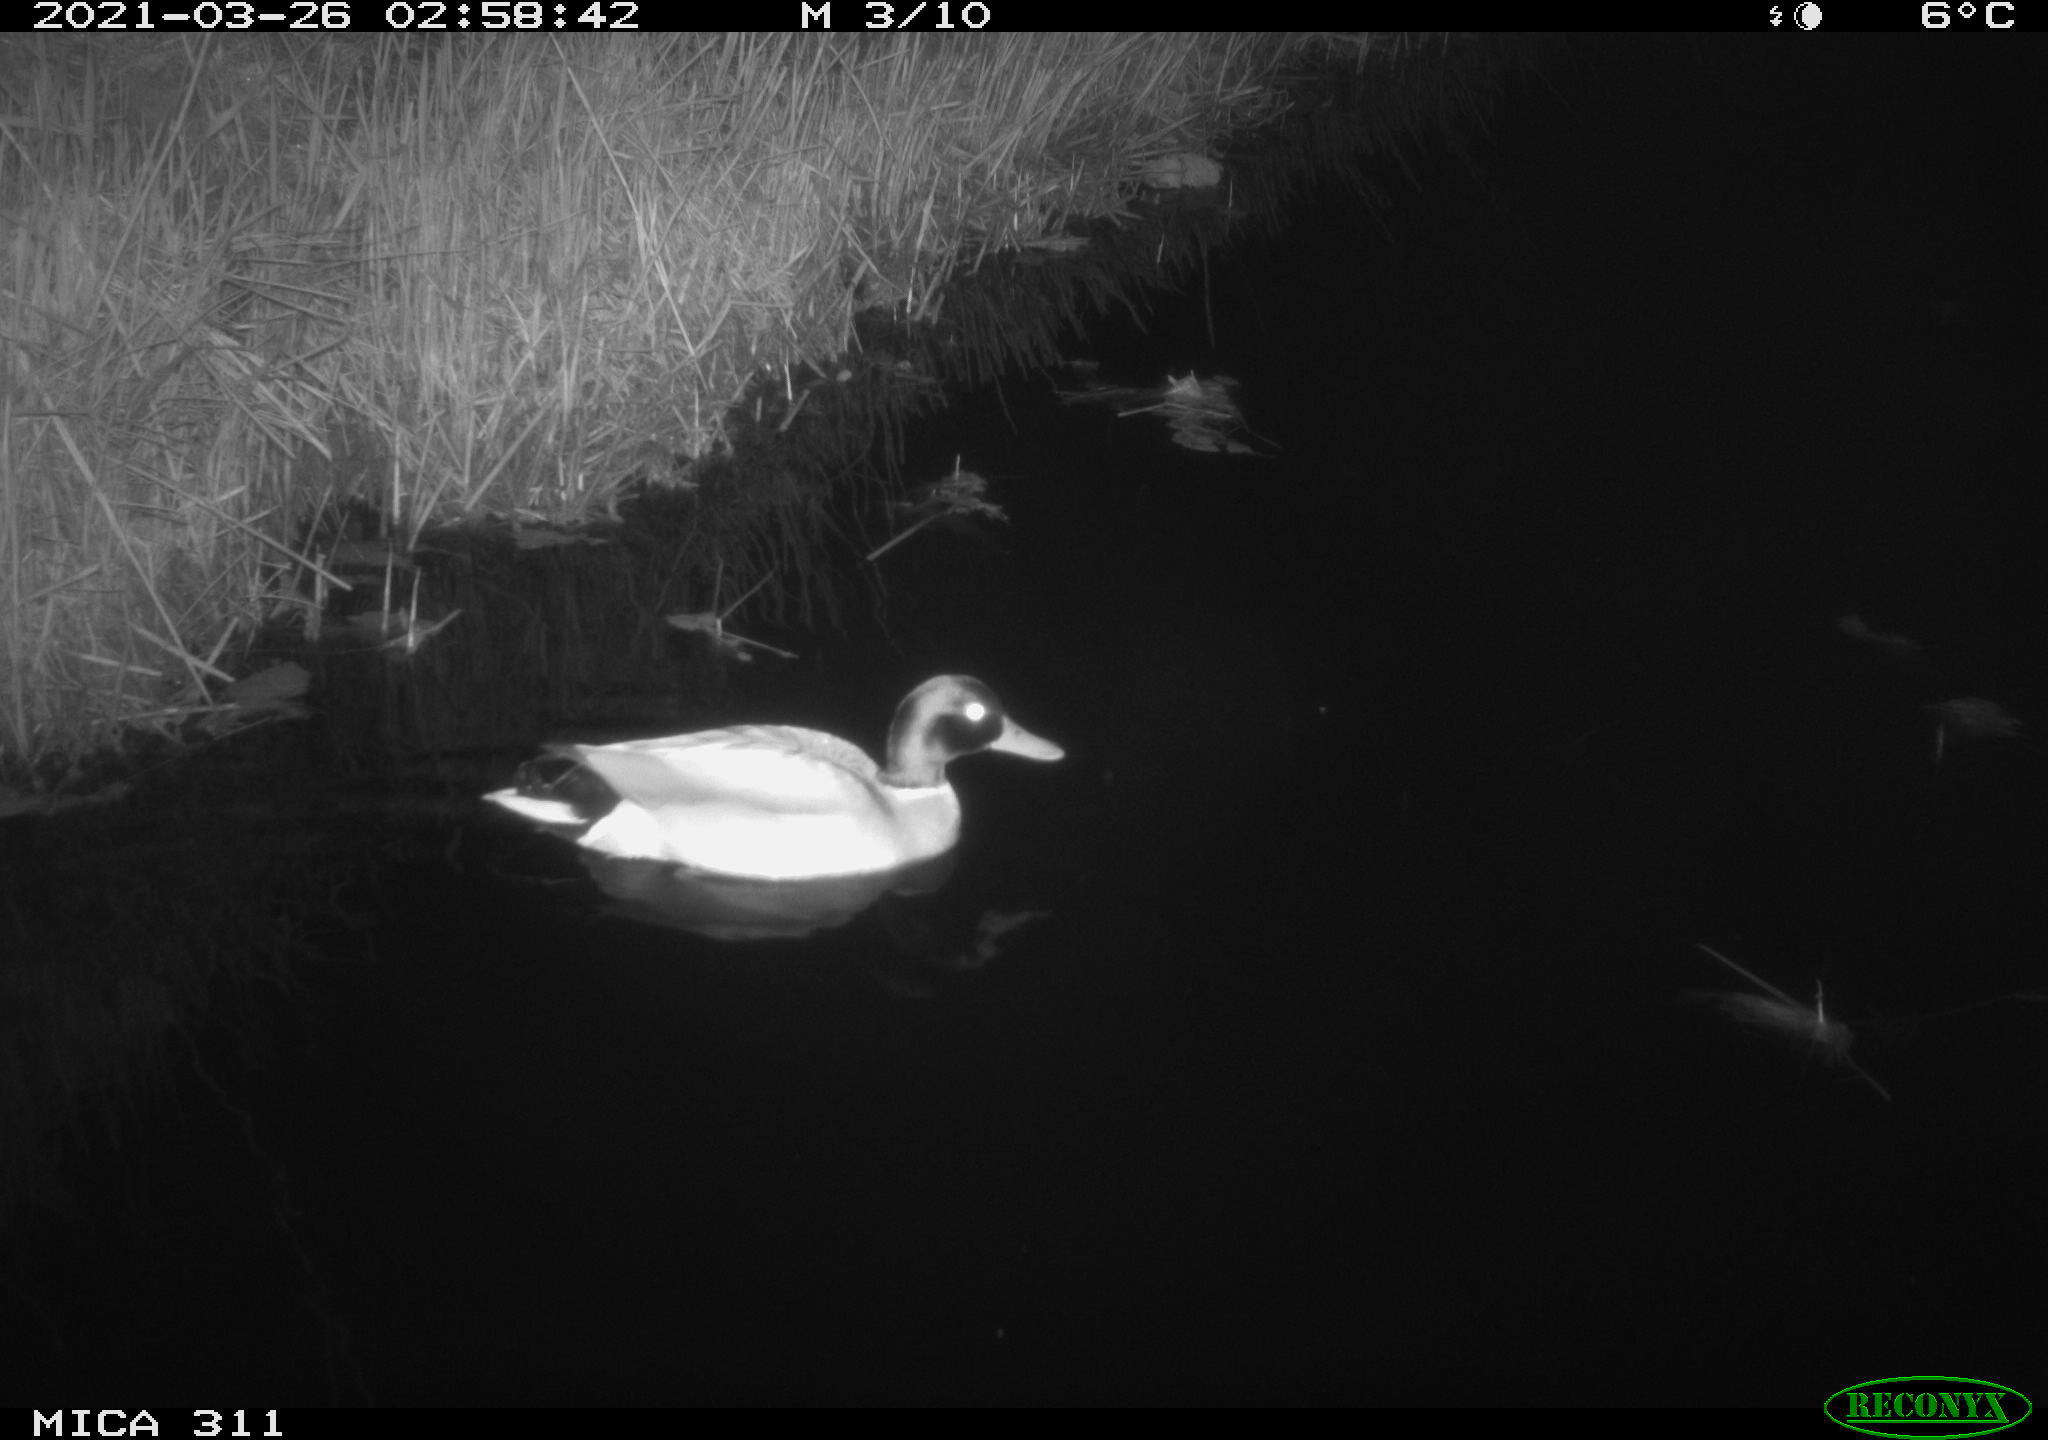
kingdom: Animalia
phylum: Chordata
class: Aves
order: Anseriformes
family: Anatidae
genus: Anas
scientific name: Anas
